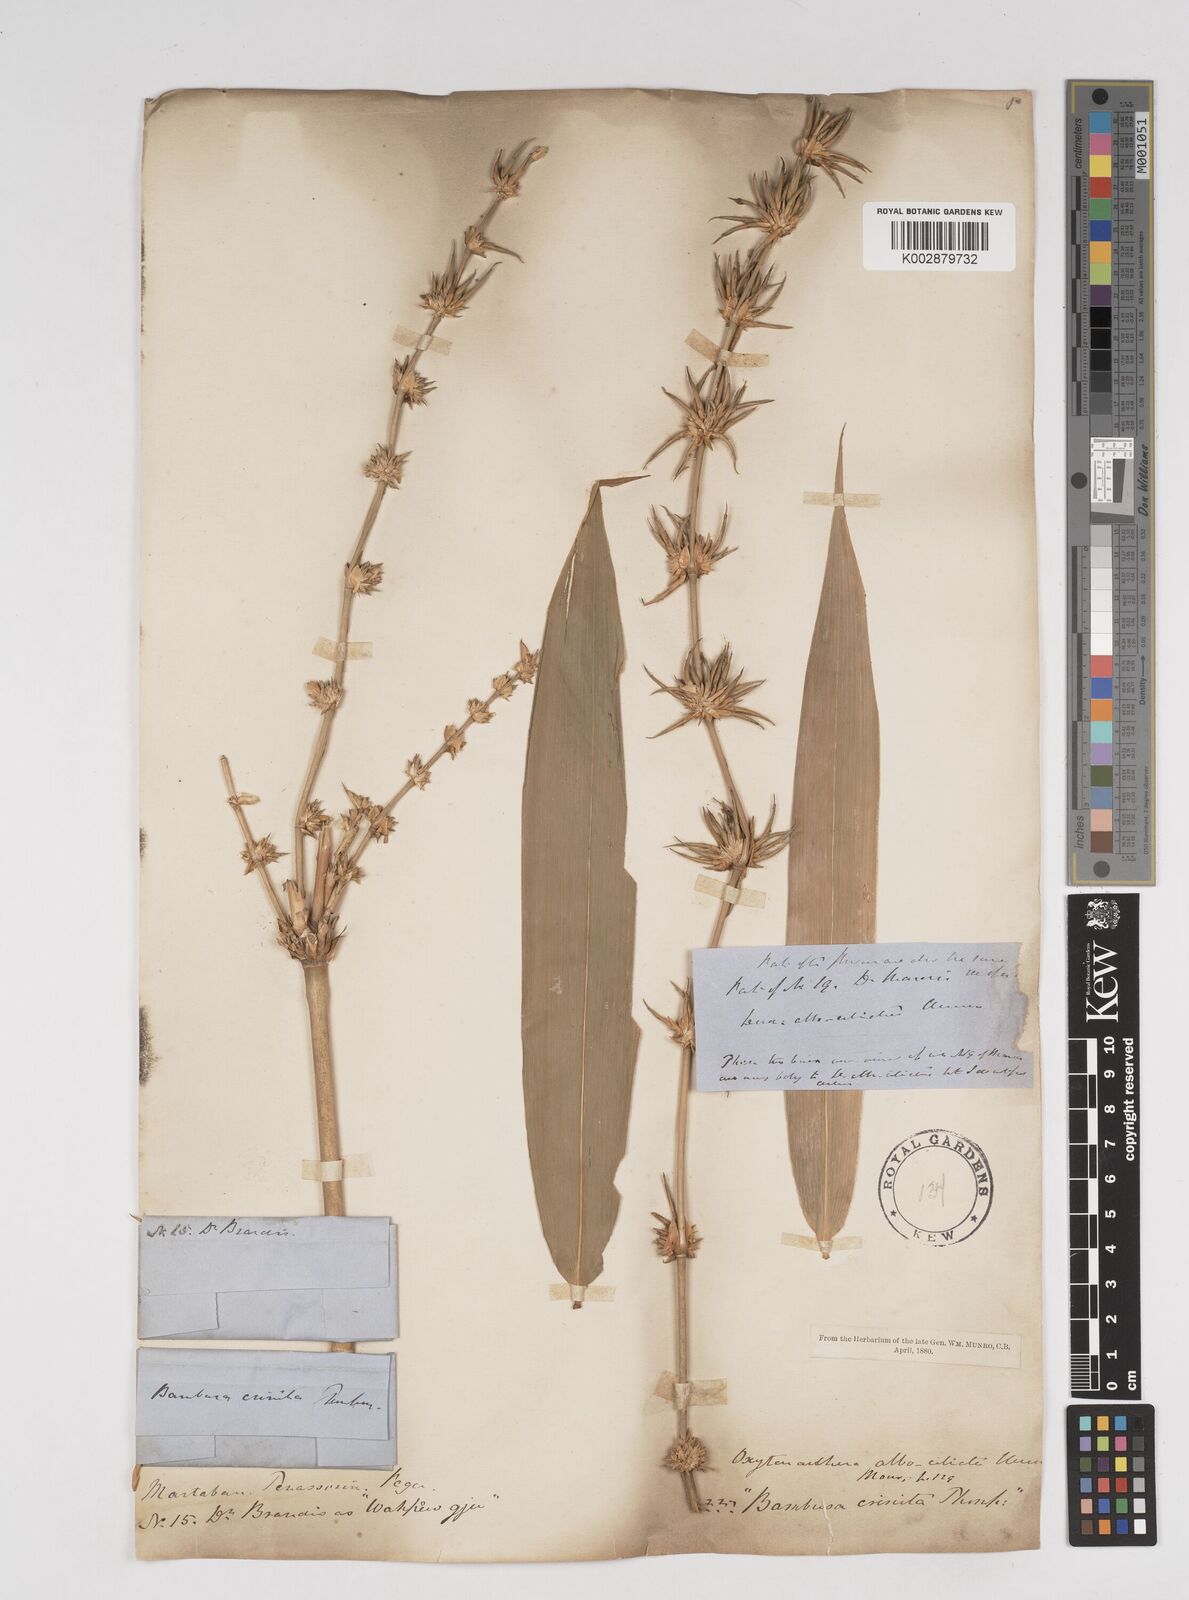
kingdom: Plantae
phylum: Tracheophyta
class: Liliopsida
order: Poales
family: Poaceae
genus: Gigantochloa
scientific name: Gigantochloa albociliata
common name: White-fringe gigantochloa
